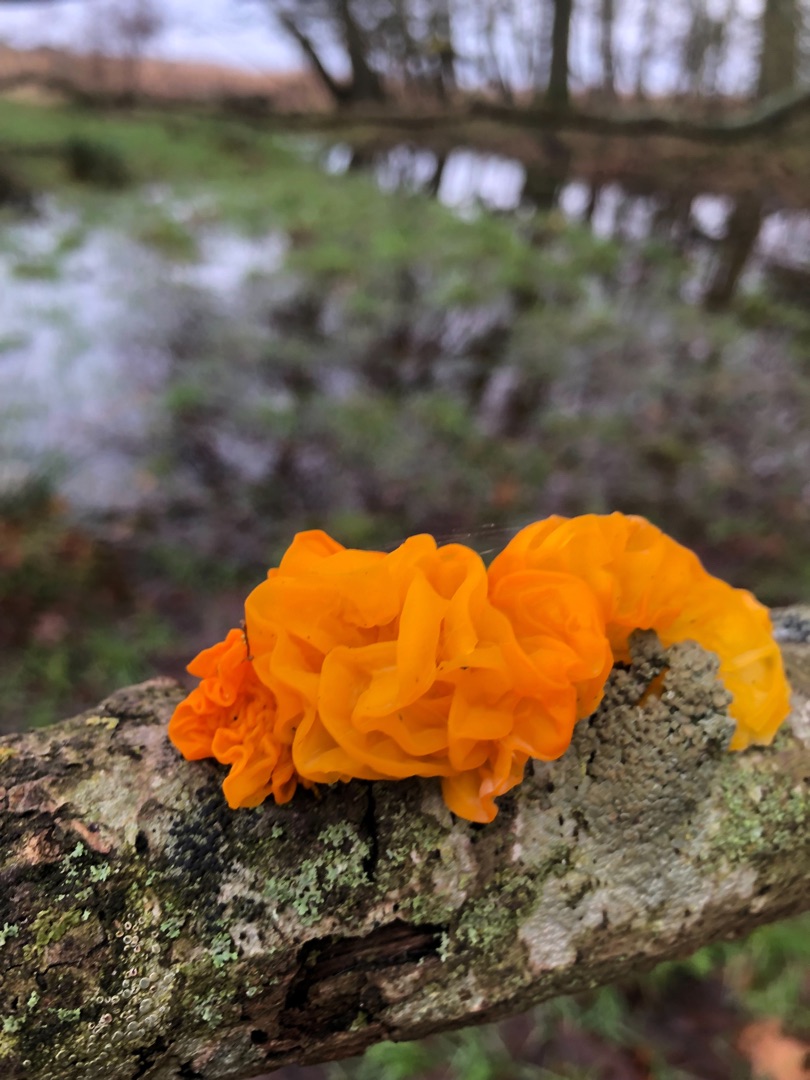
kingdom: Fungi
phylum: Basidiomycota
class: Tremellomycetes
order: Tremellales
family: Tremellaceae
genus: Tremella
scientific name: Tremella mesenterica
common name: Gul bævresvamp
